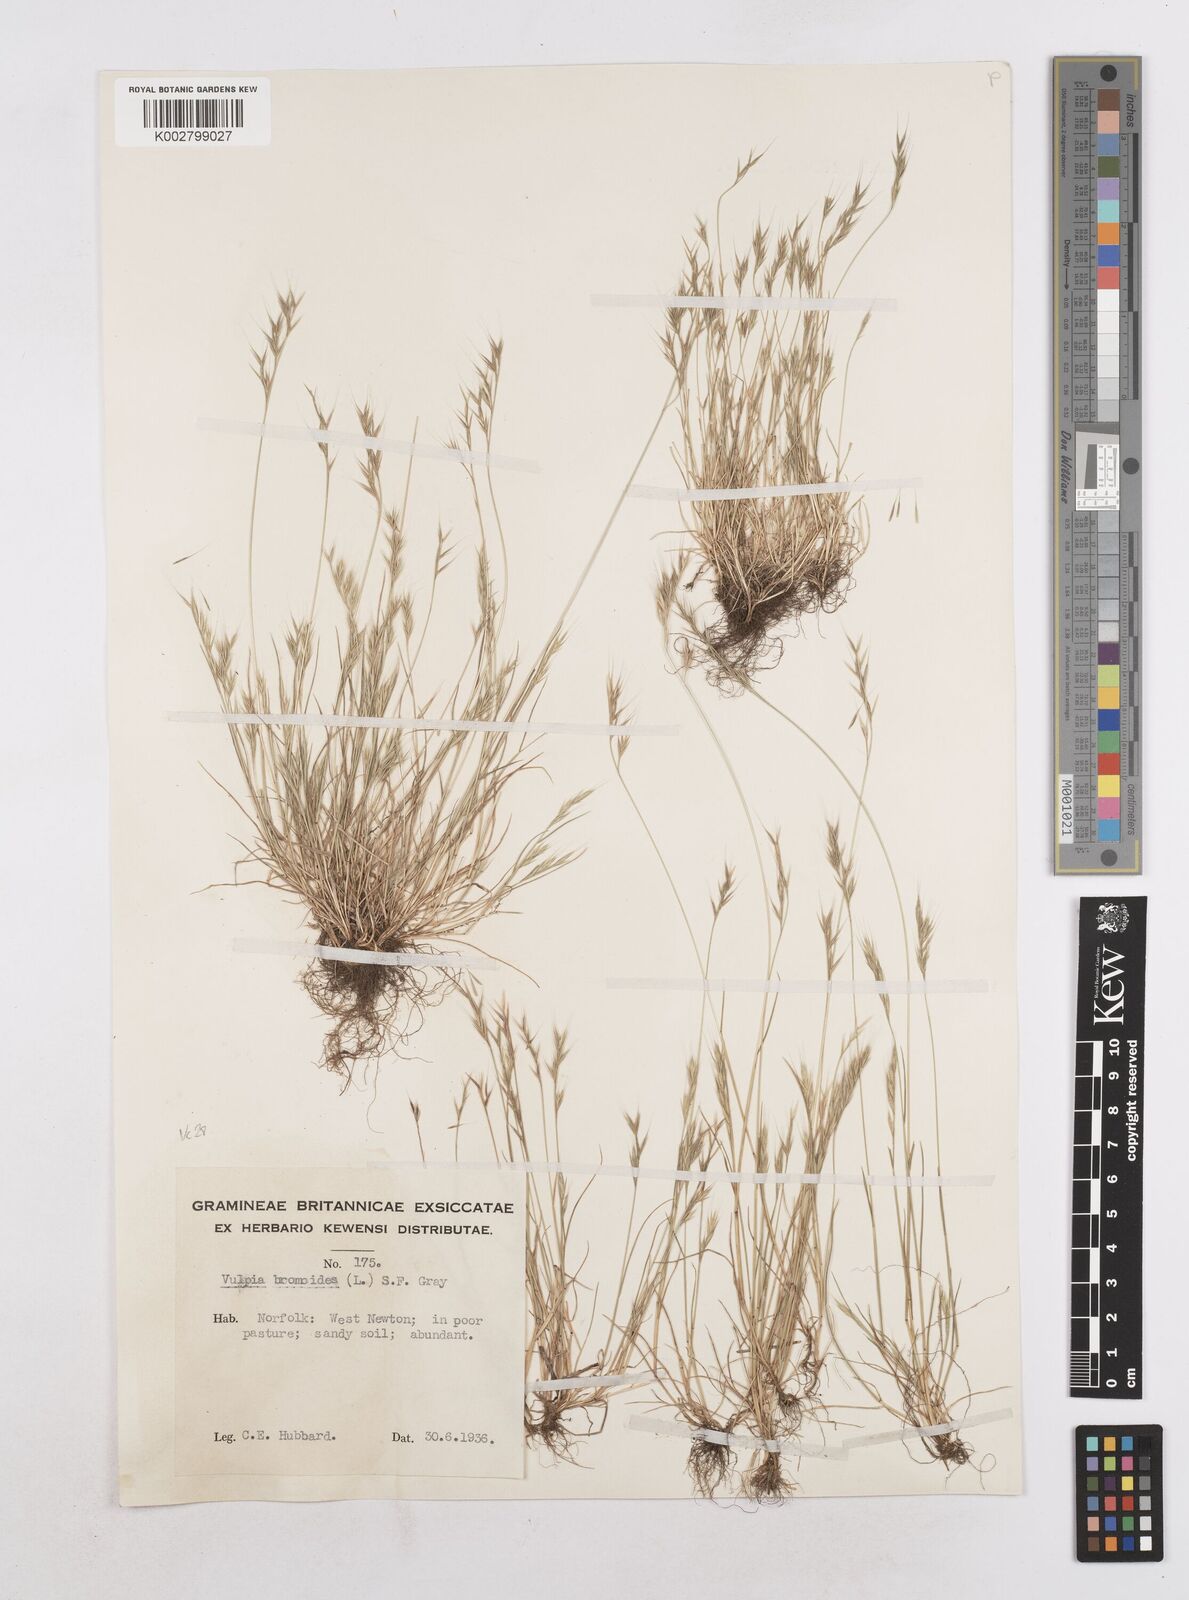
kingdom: Plantae
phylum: Tracheophyta
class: Liliopsida
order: Poales
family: Poaceae
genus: Festuca
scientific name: Festuca bromoides
